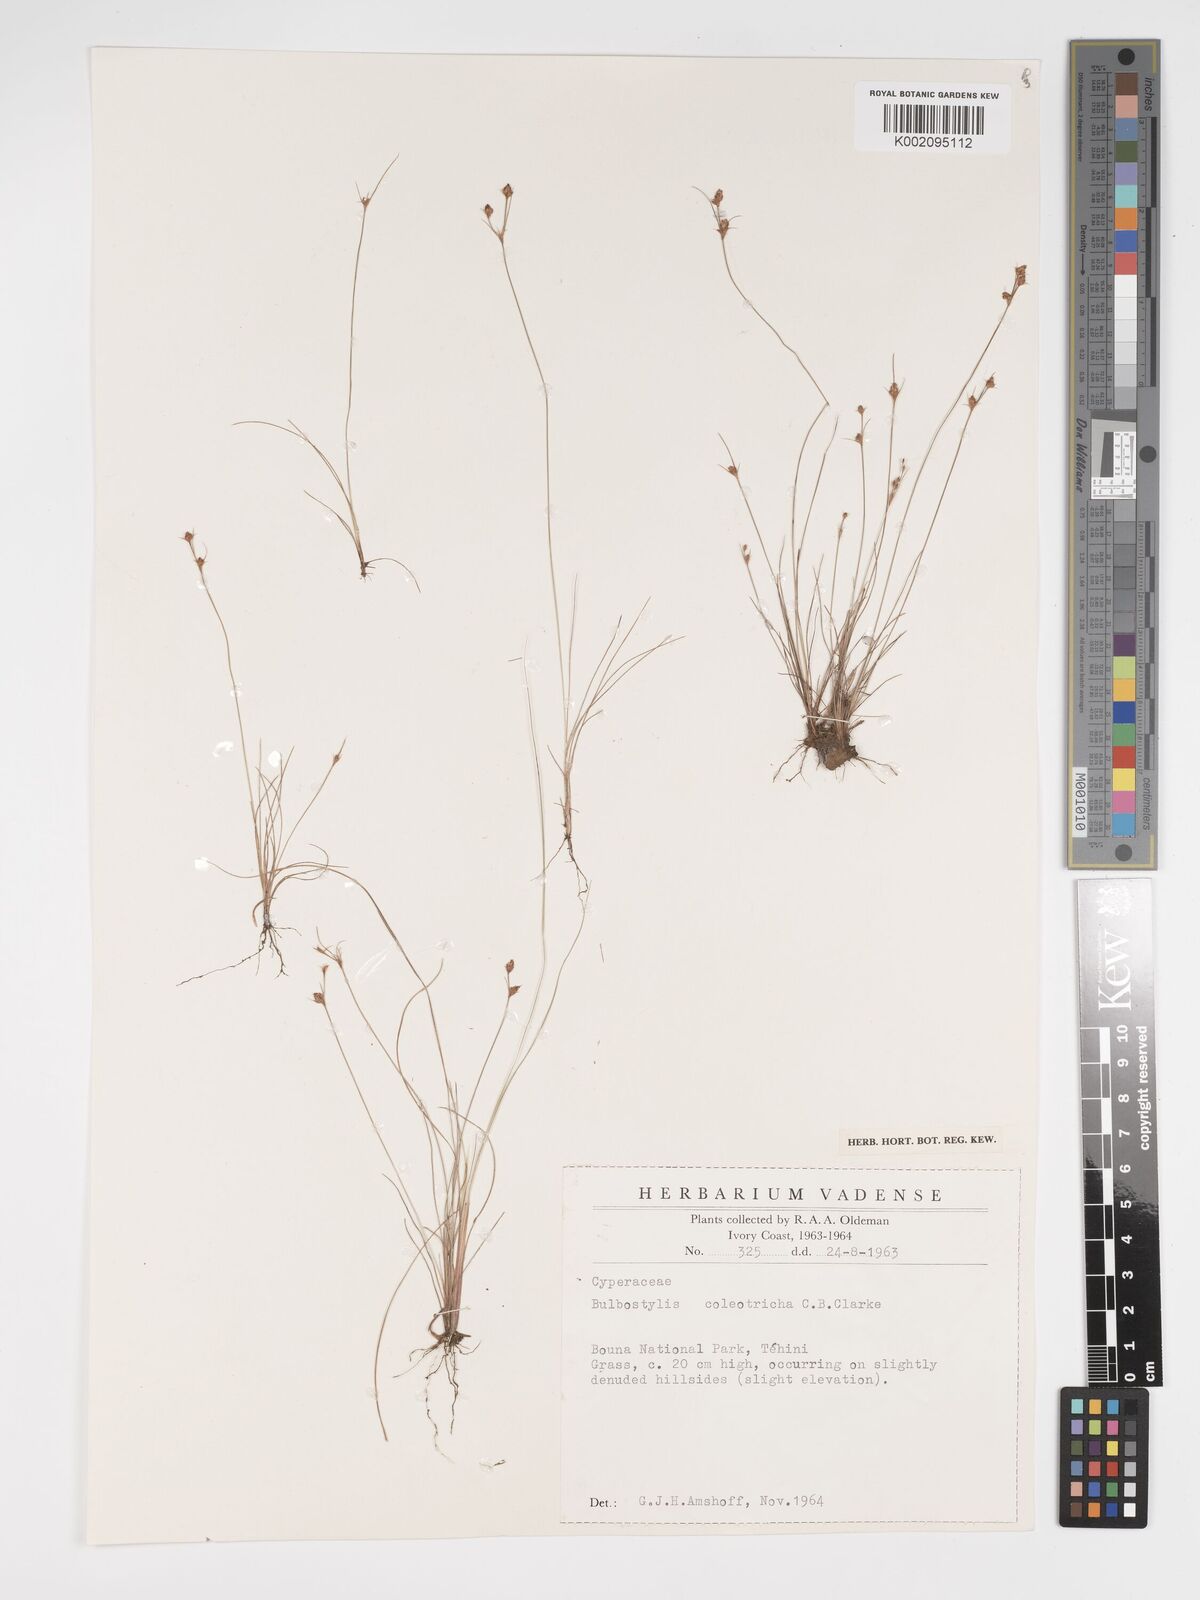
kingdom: Plantae
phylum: Tracheophyta
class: Liliopsida
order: Poales
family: Cyperaceae
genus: Bulbostylis
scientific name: Bulbostylis coleotricha
